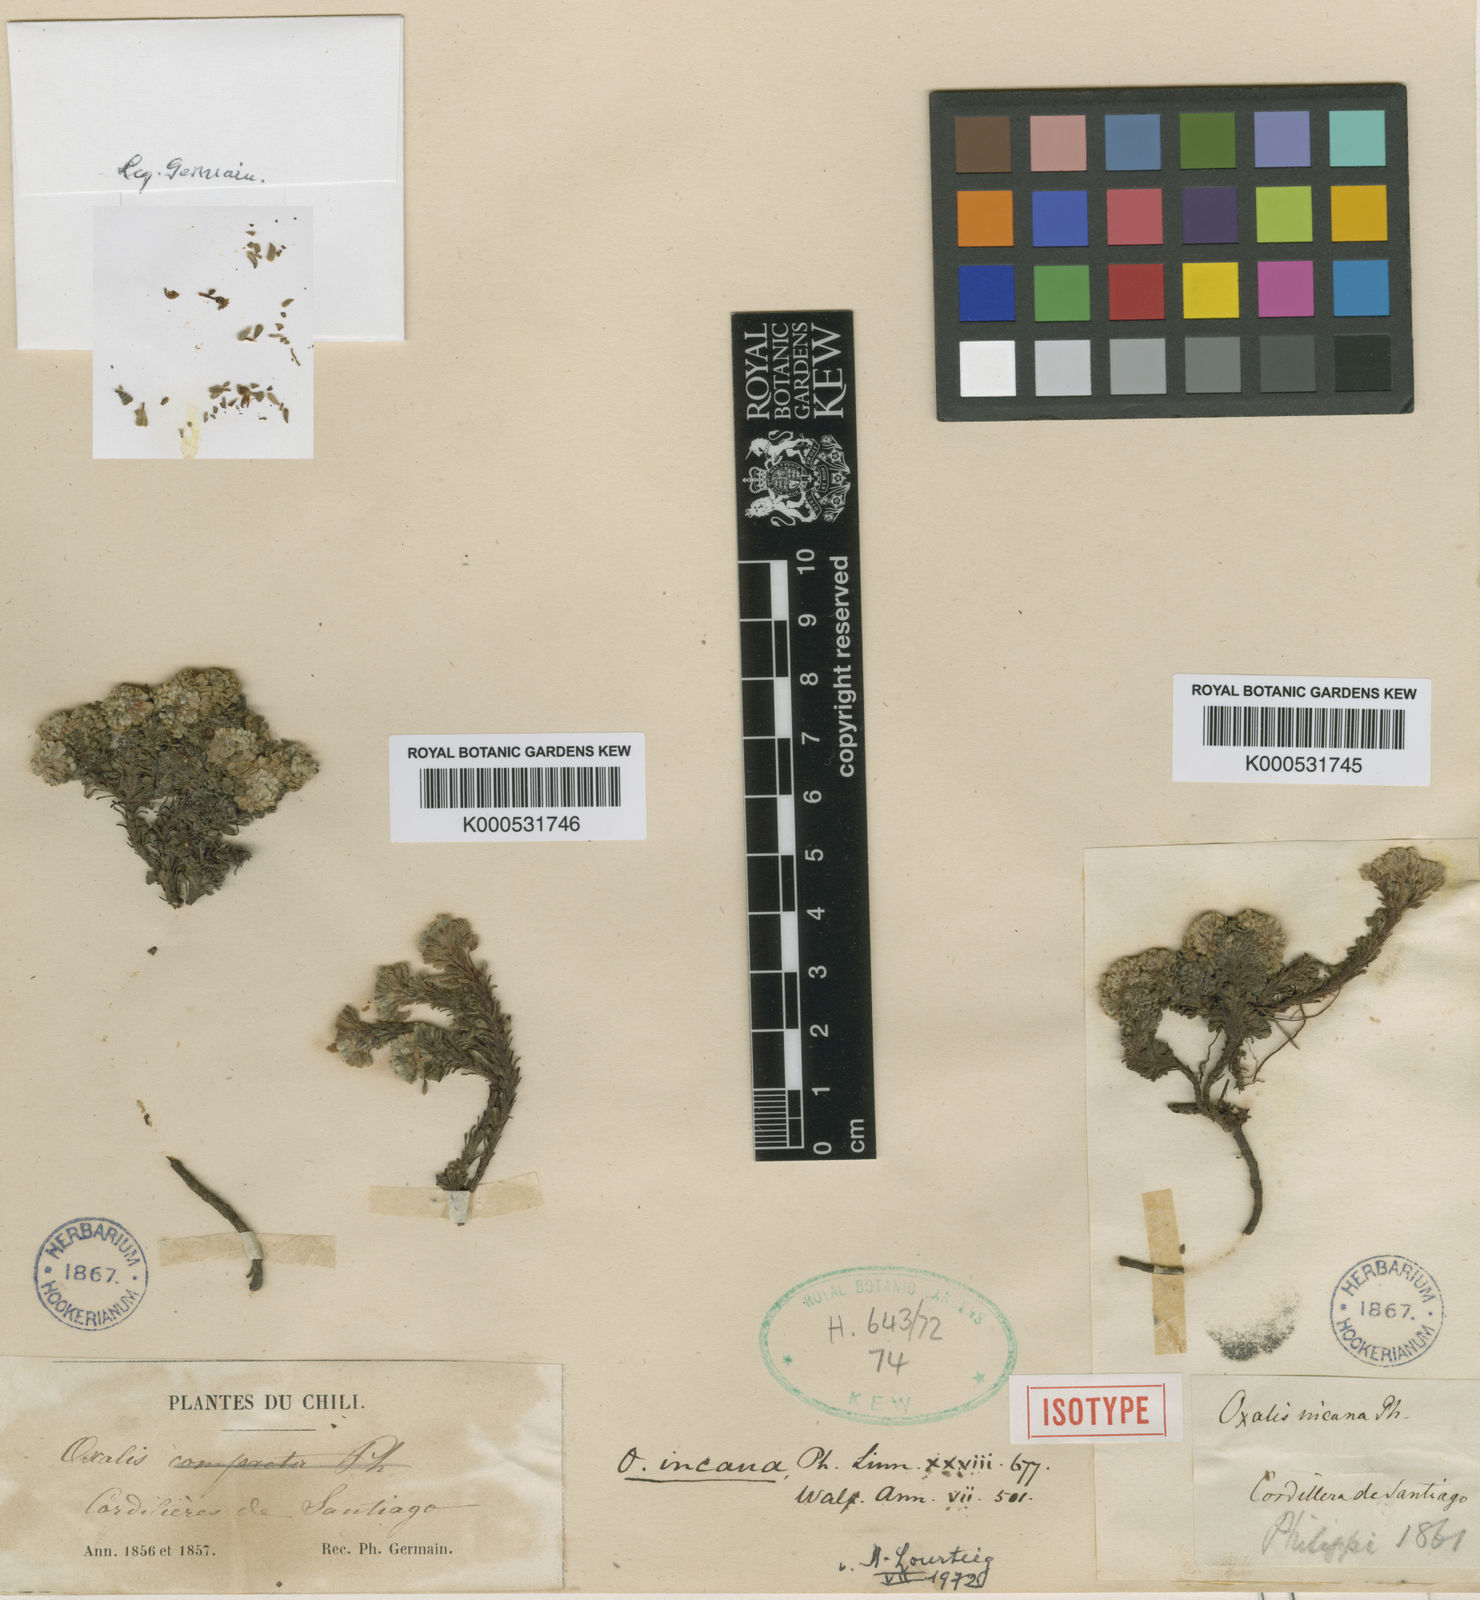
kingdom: Plantae
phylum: Tracheophyta
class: Magnoliopsida
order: Oxalidales
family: Oxalidaceae
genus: Oxalis
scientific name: Oxalis incana
